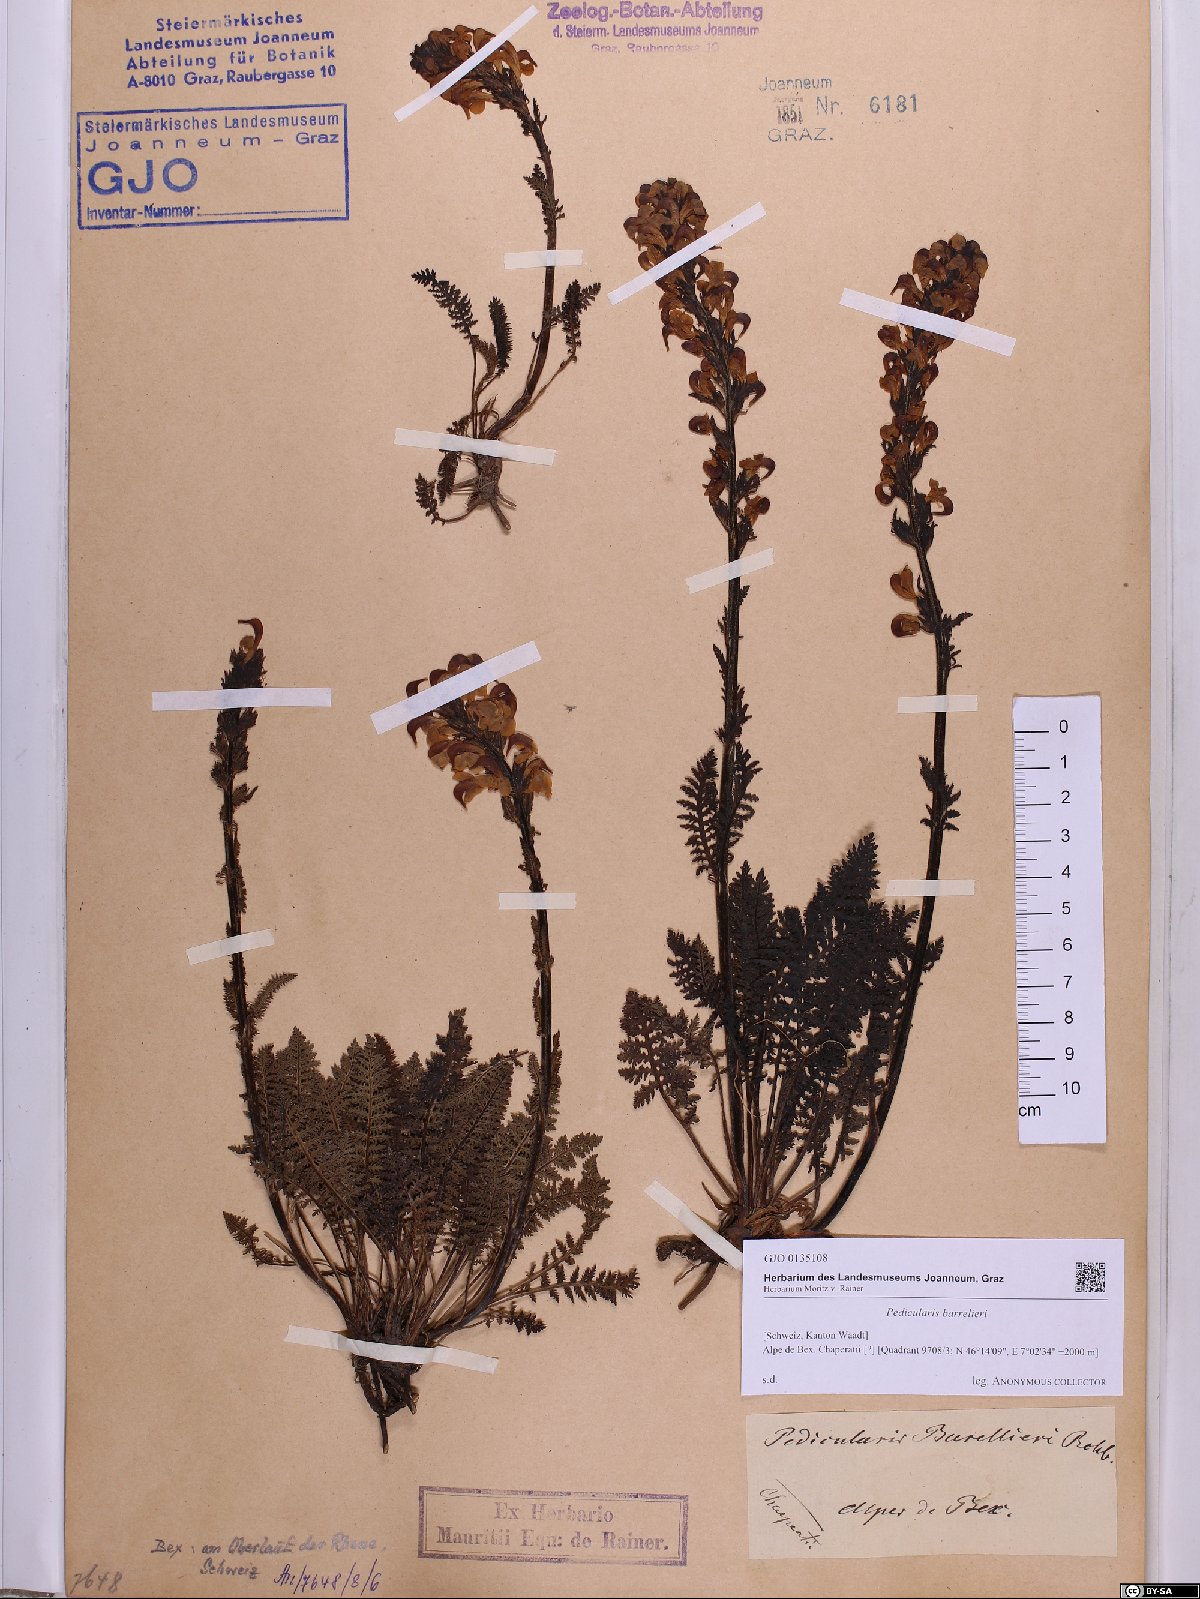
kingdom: Plantae
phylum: Tracheophyta
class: Magnoliopsida
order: Lamiales
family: Orobanchaceae
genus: Pedicularis
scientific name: Pedicularis ascendens
